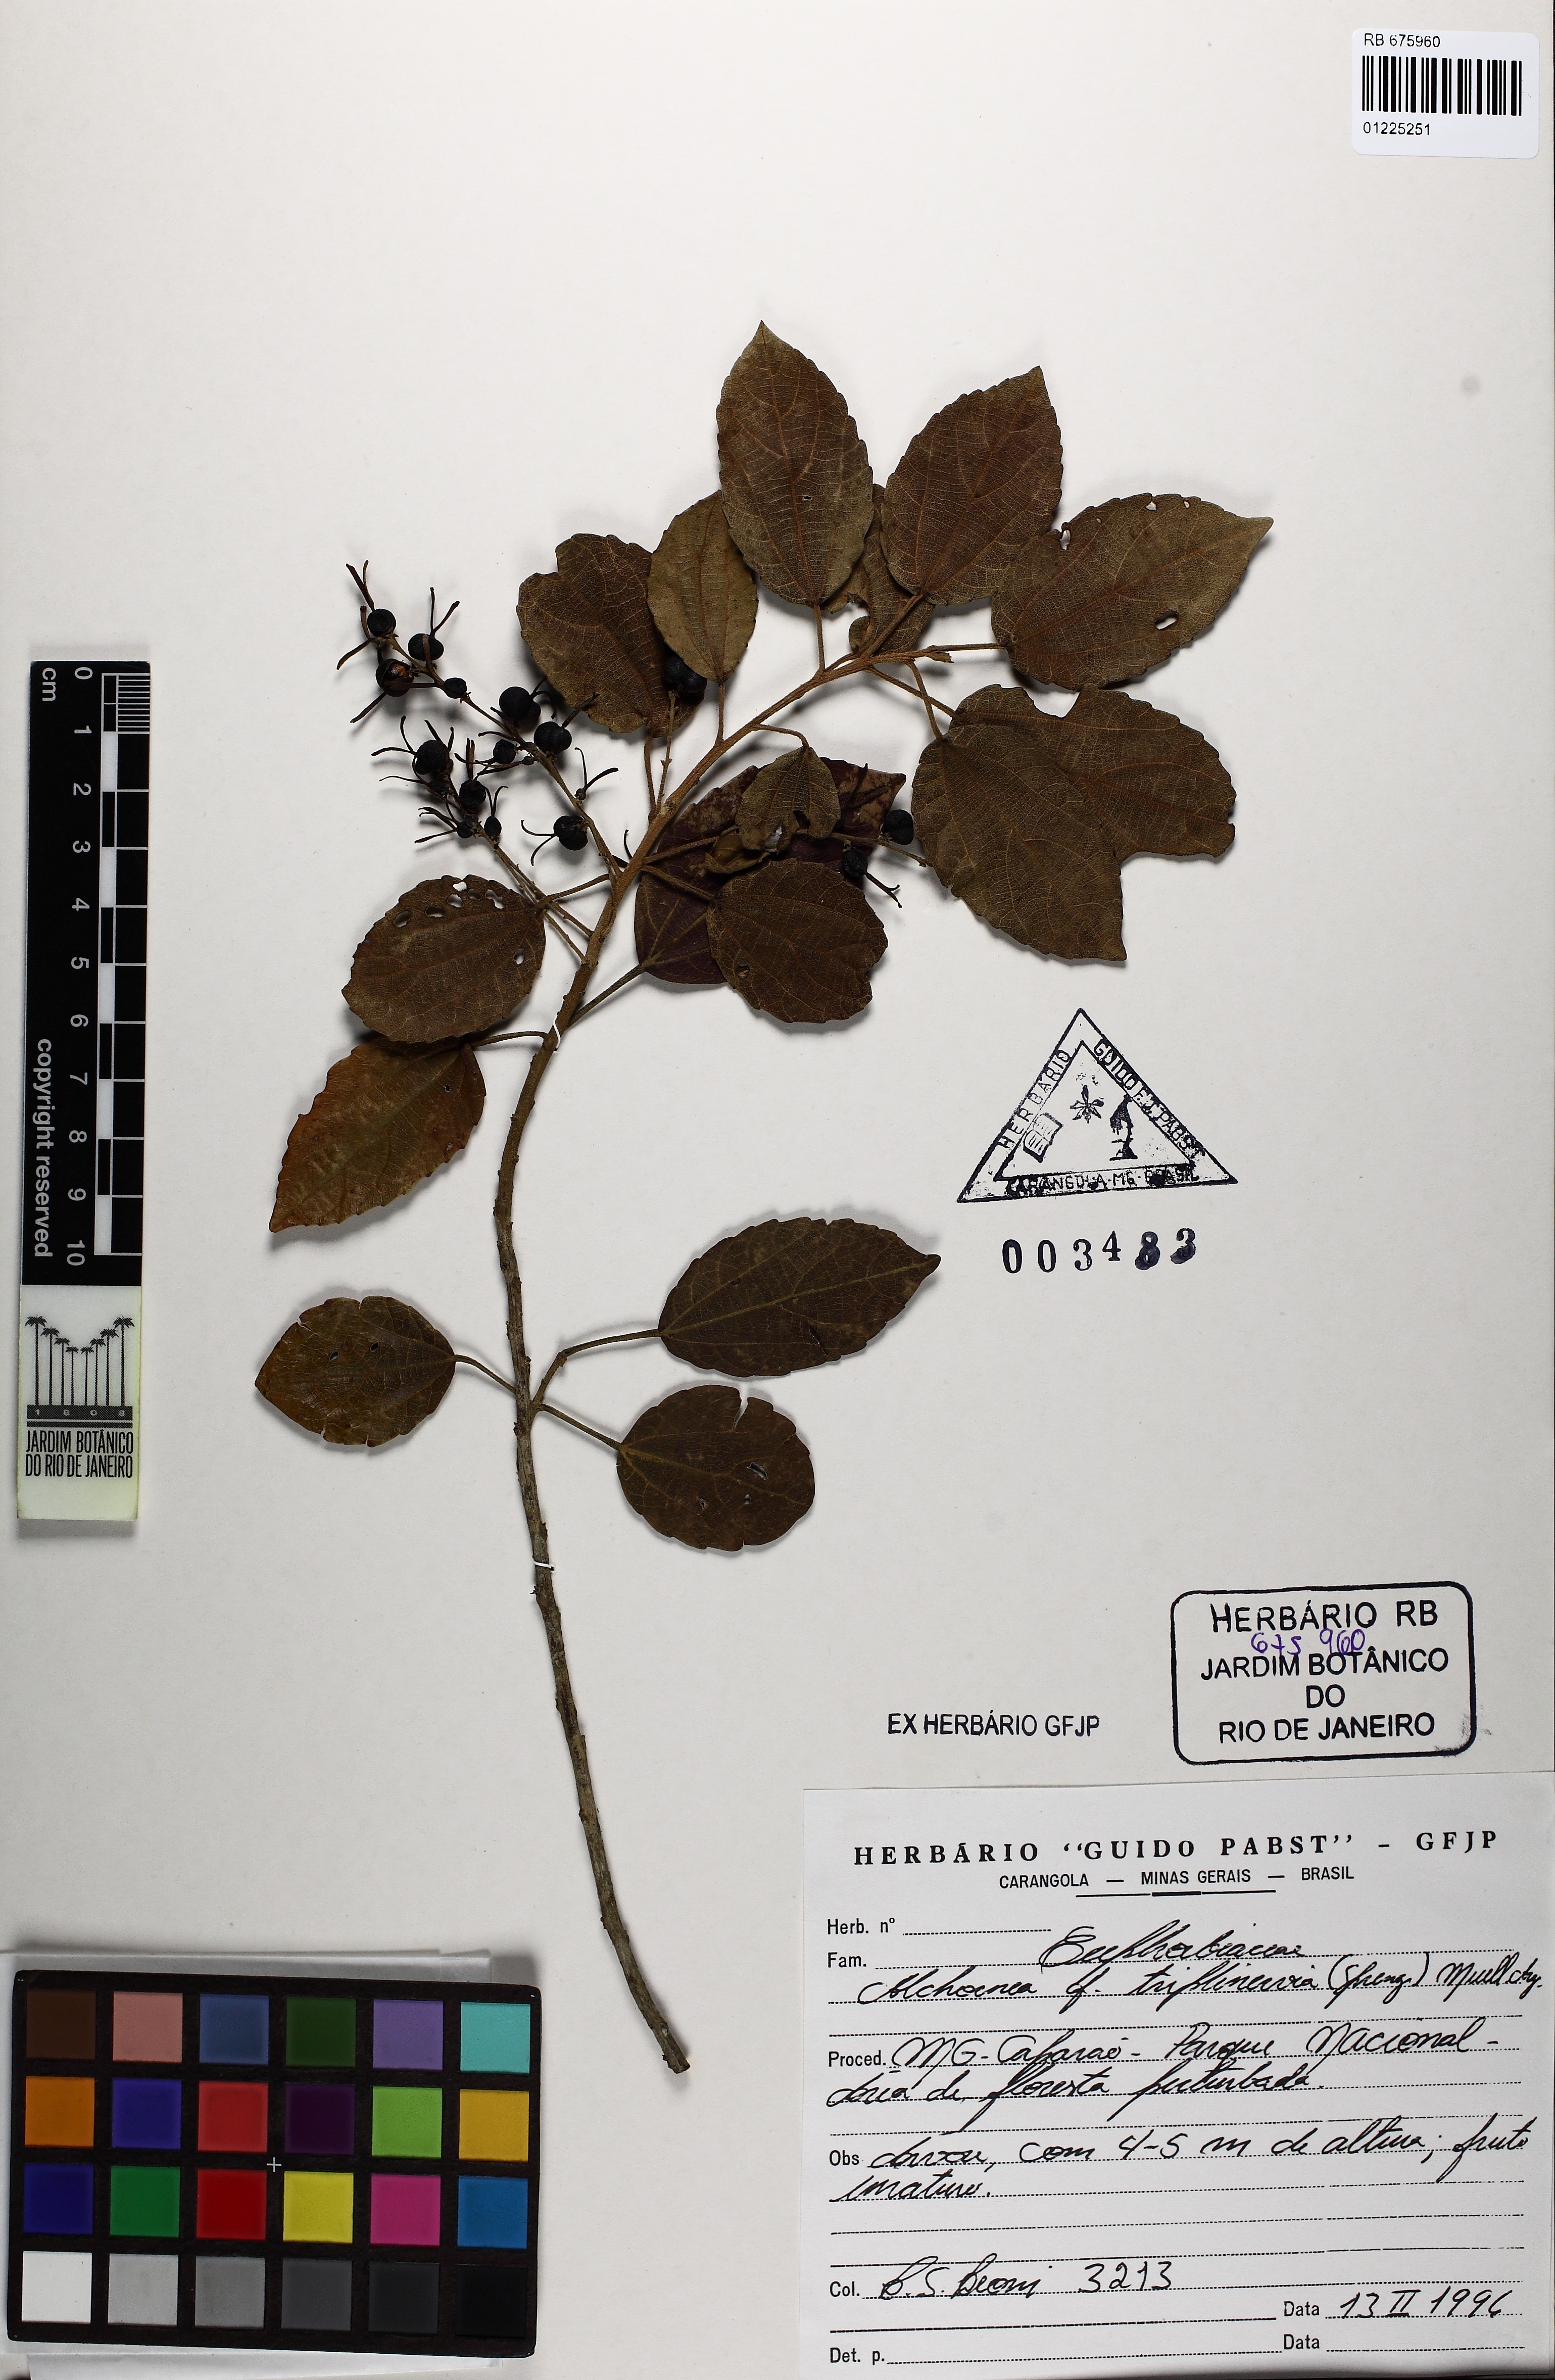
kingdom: Plantae
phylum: Tracheophyta
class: Magnoliopsida
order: Malpighiales
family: Euphorbiaceae
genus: Alchornea
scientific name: Alchornea triplinervia
